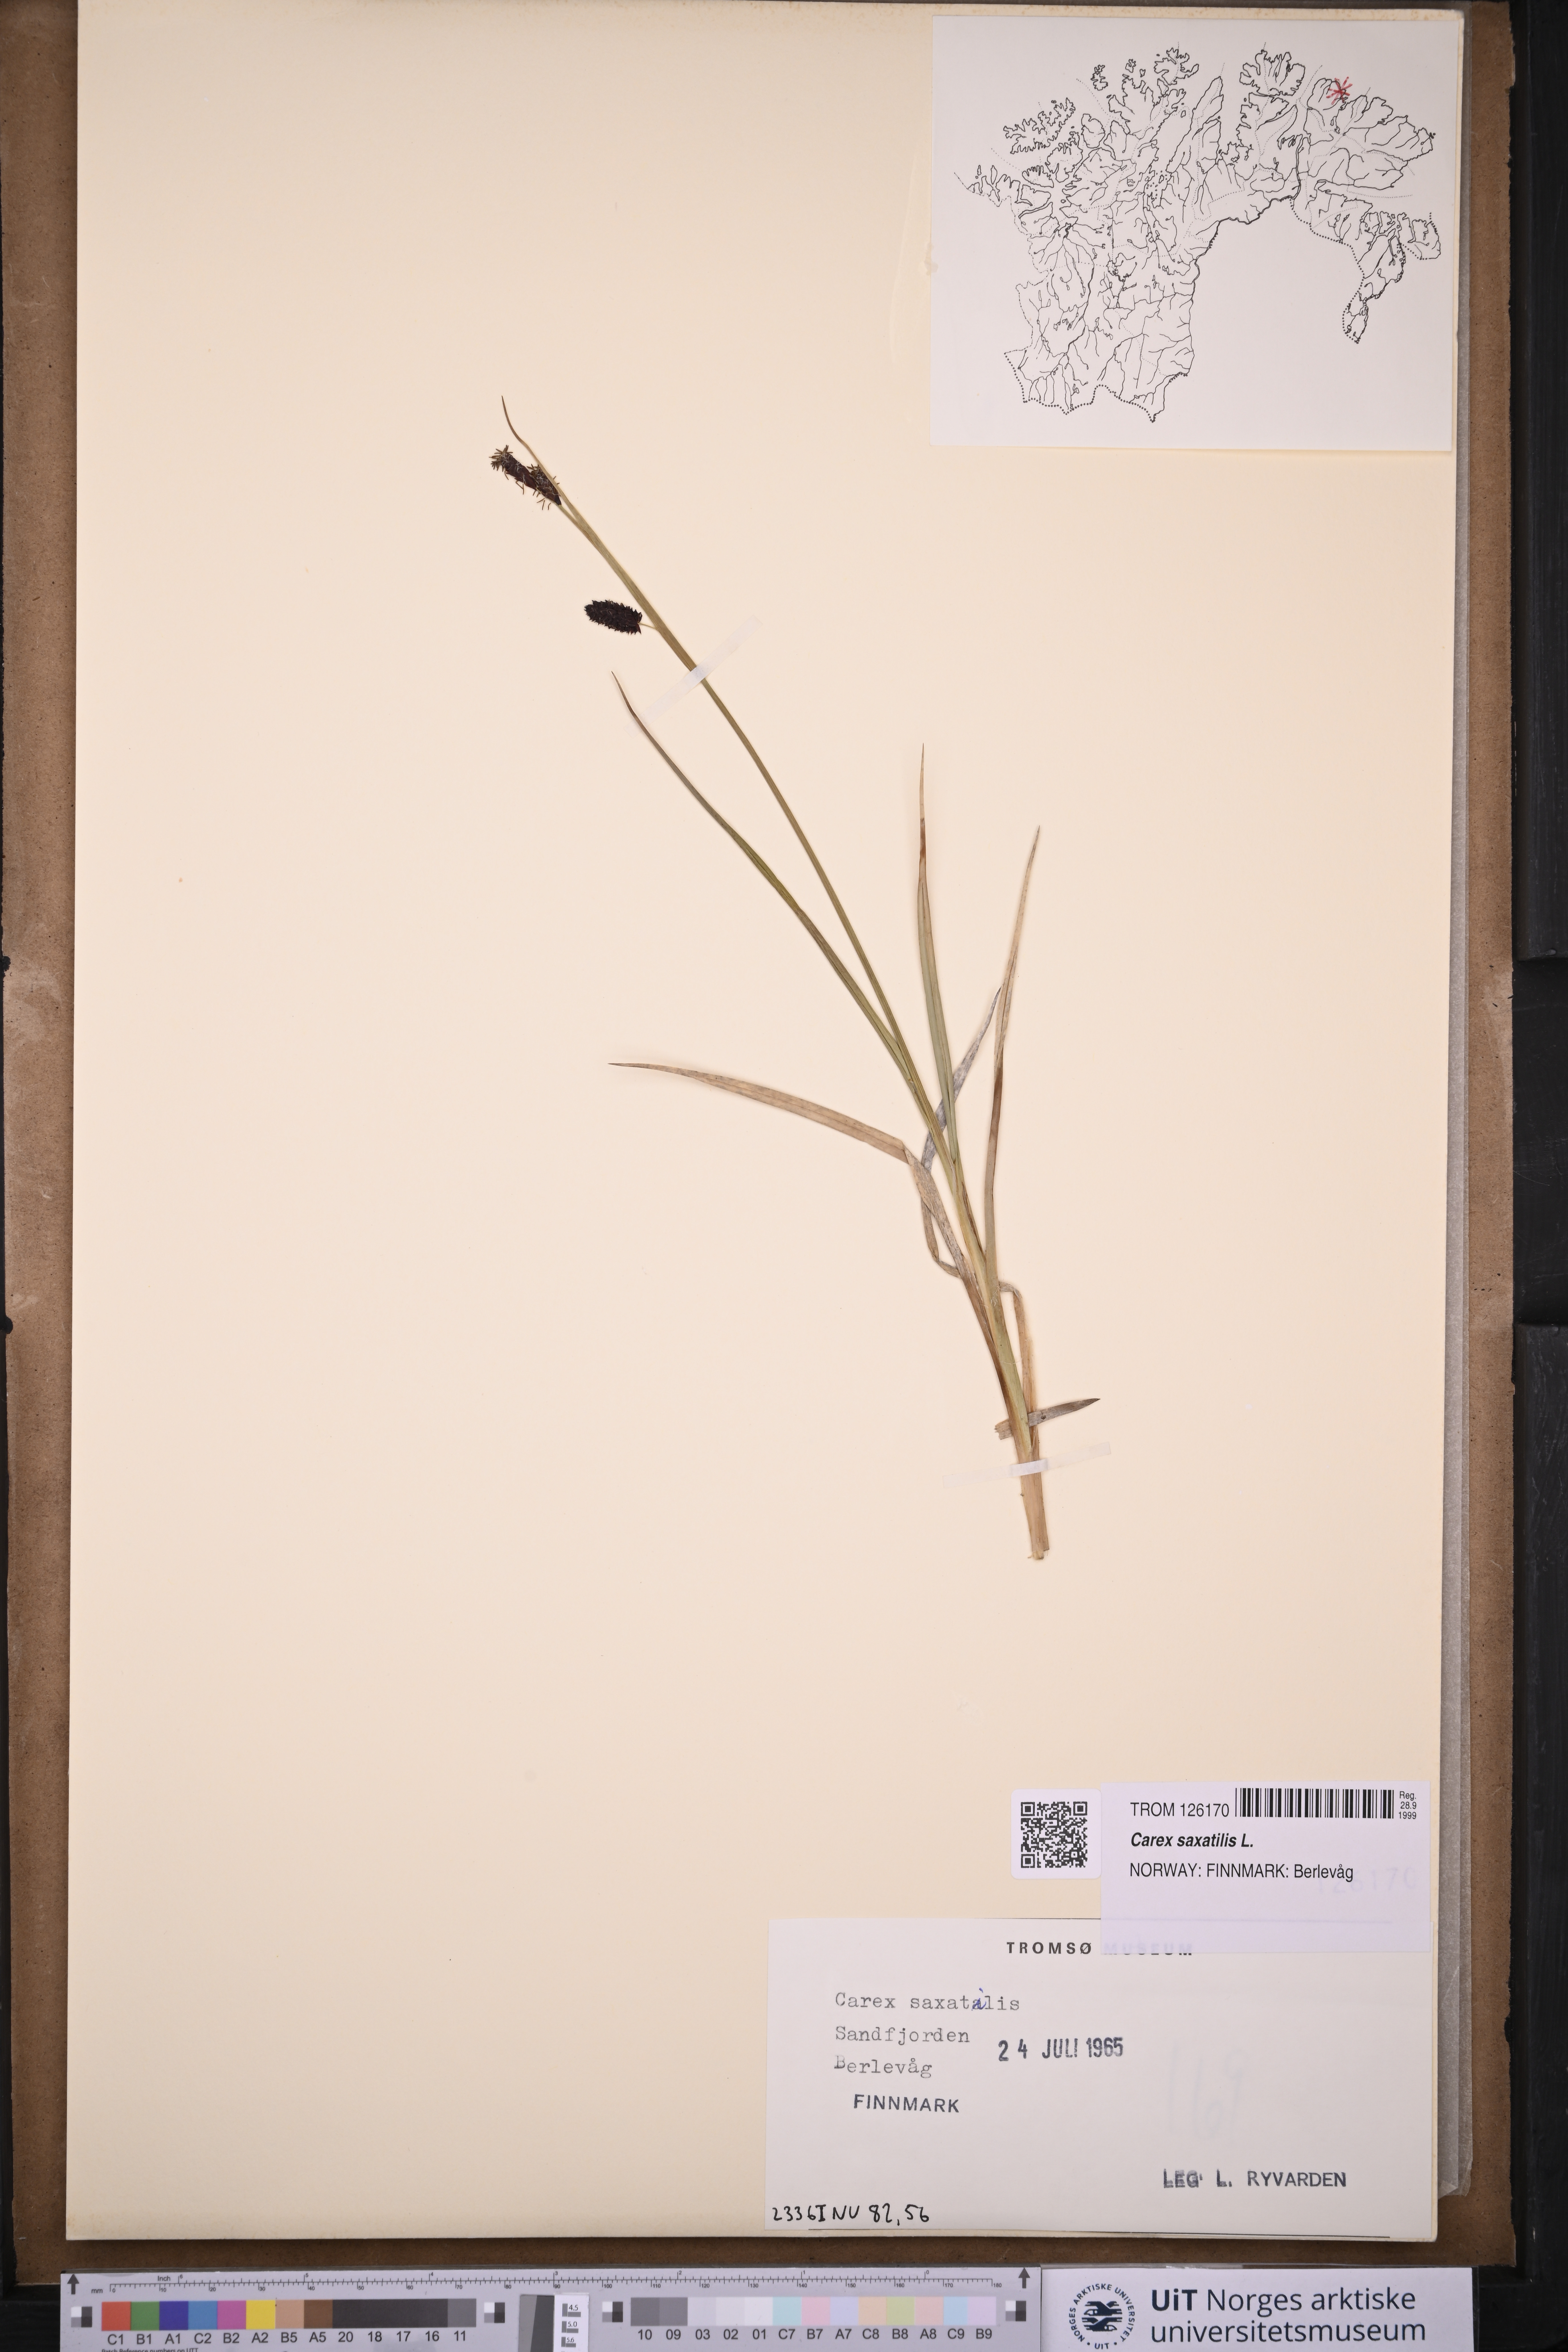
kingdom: Plantae
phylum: Tracheophyta
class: Liliopsida
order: Poales
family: Cyperaceae
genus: Carex
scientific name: Carex saxatilis
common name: Russet sedge
